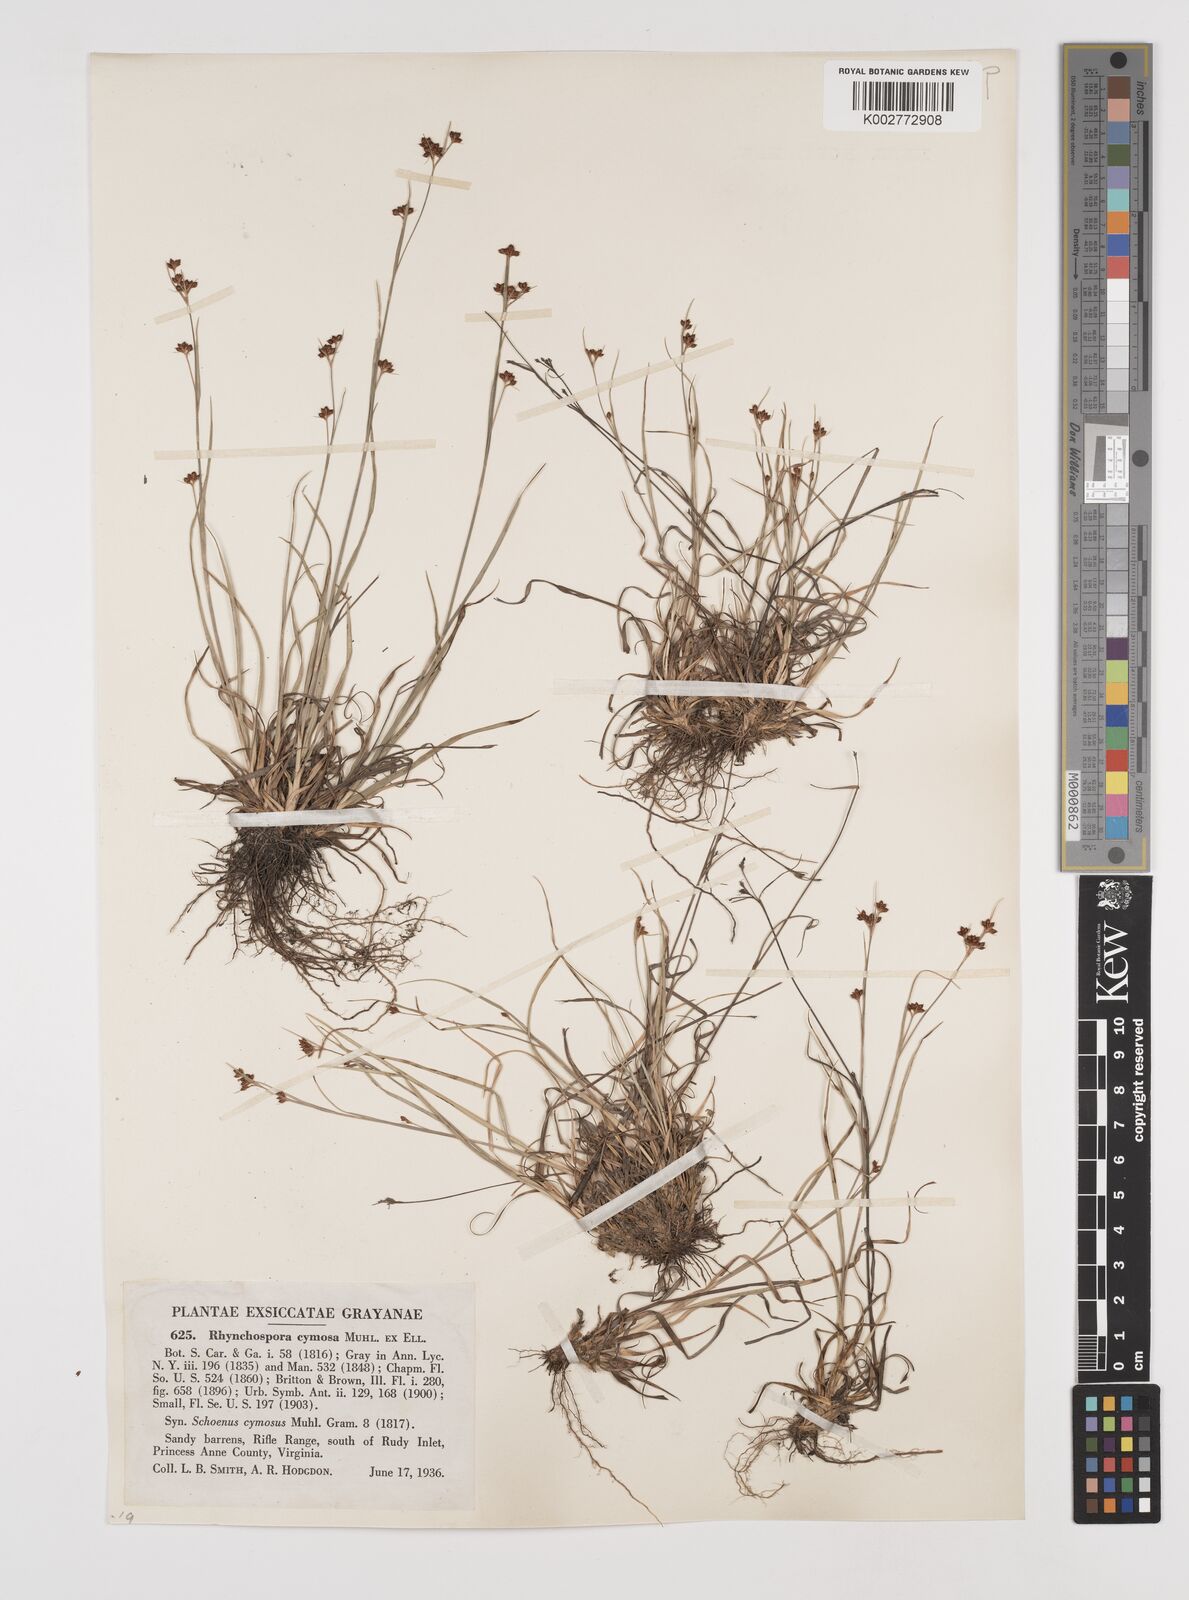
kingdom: Plantae
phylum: Tracheophyta
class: Liliopsida
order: Poales
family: Cyperaceae
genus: Scirpus
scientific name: Scirpus polyphyllus
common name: Leafy bulrush
